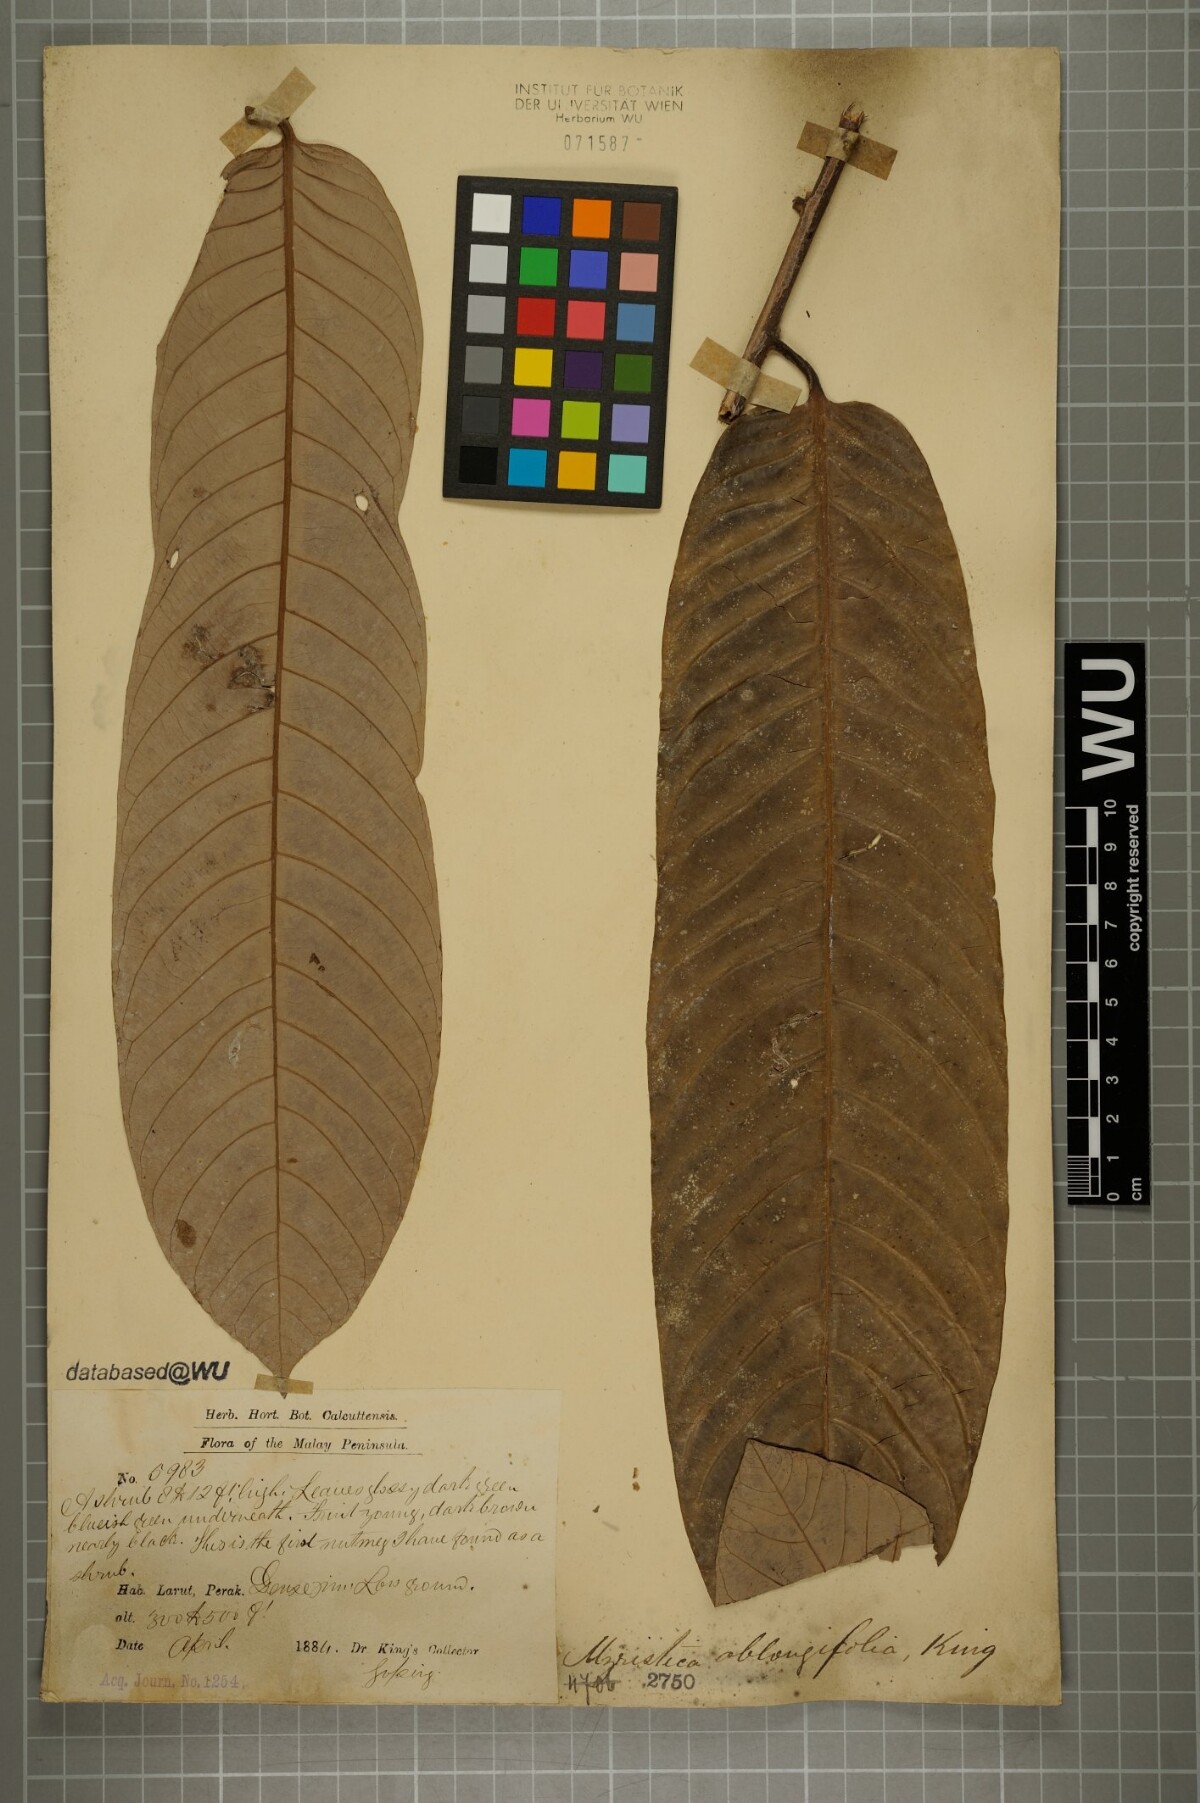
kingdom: Plantae
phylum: Tracheophyta
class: Magnoliopsida
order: Magnoliales
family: Myristicaceae
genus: Knema
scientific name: Knema oblongifolia
